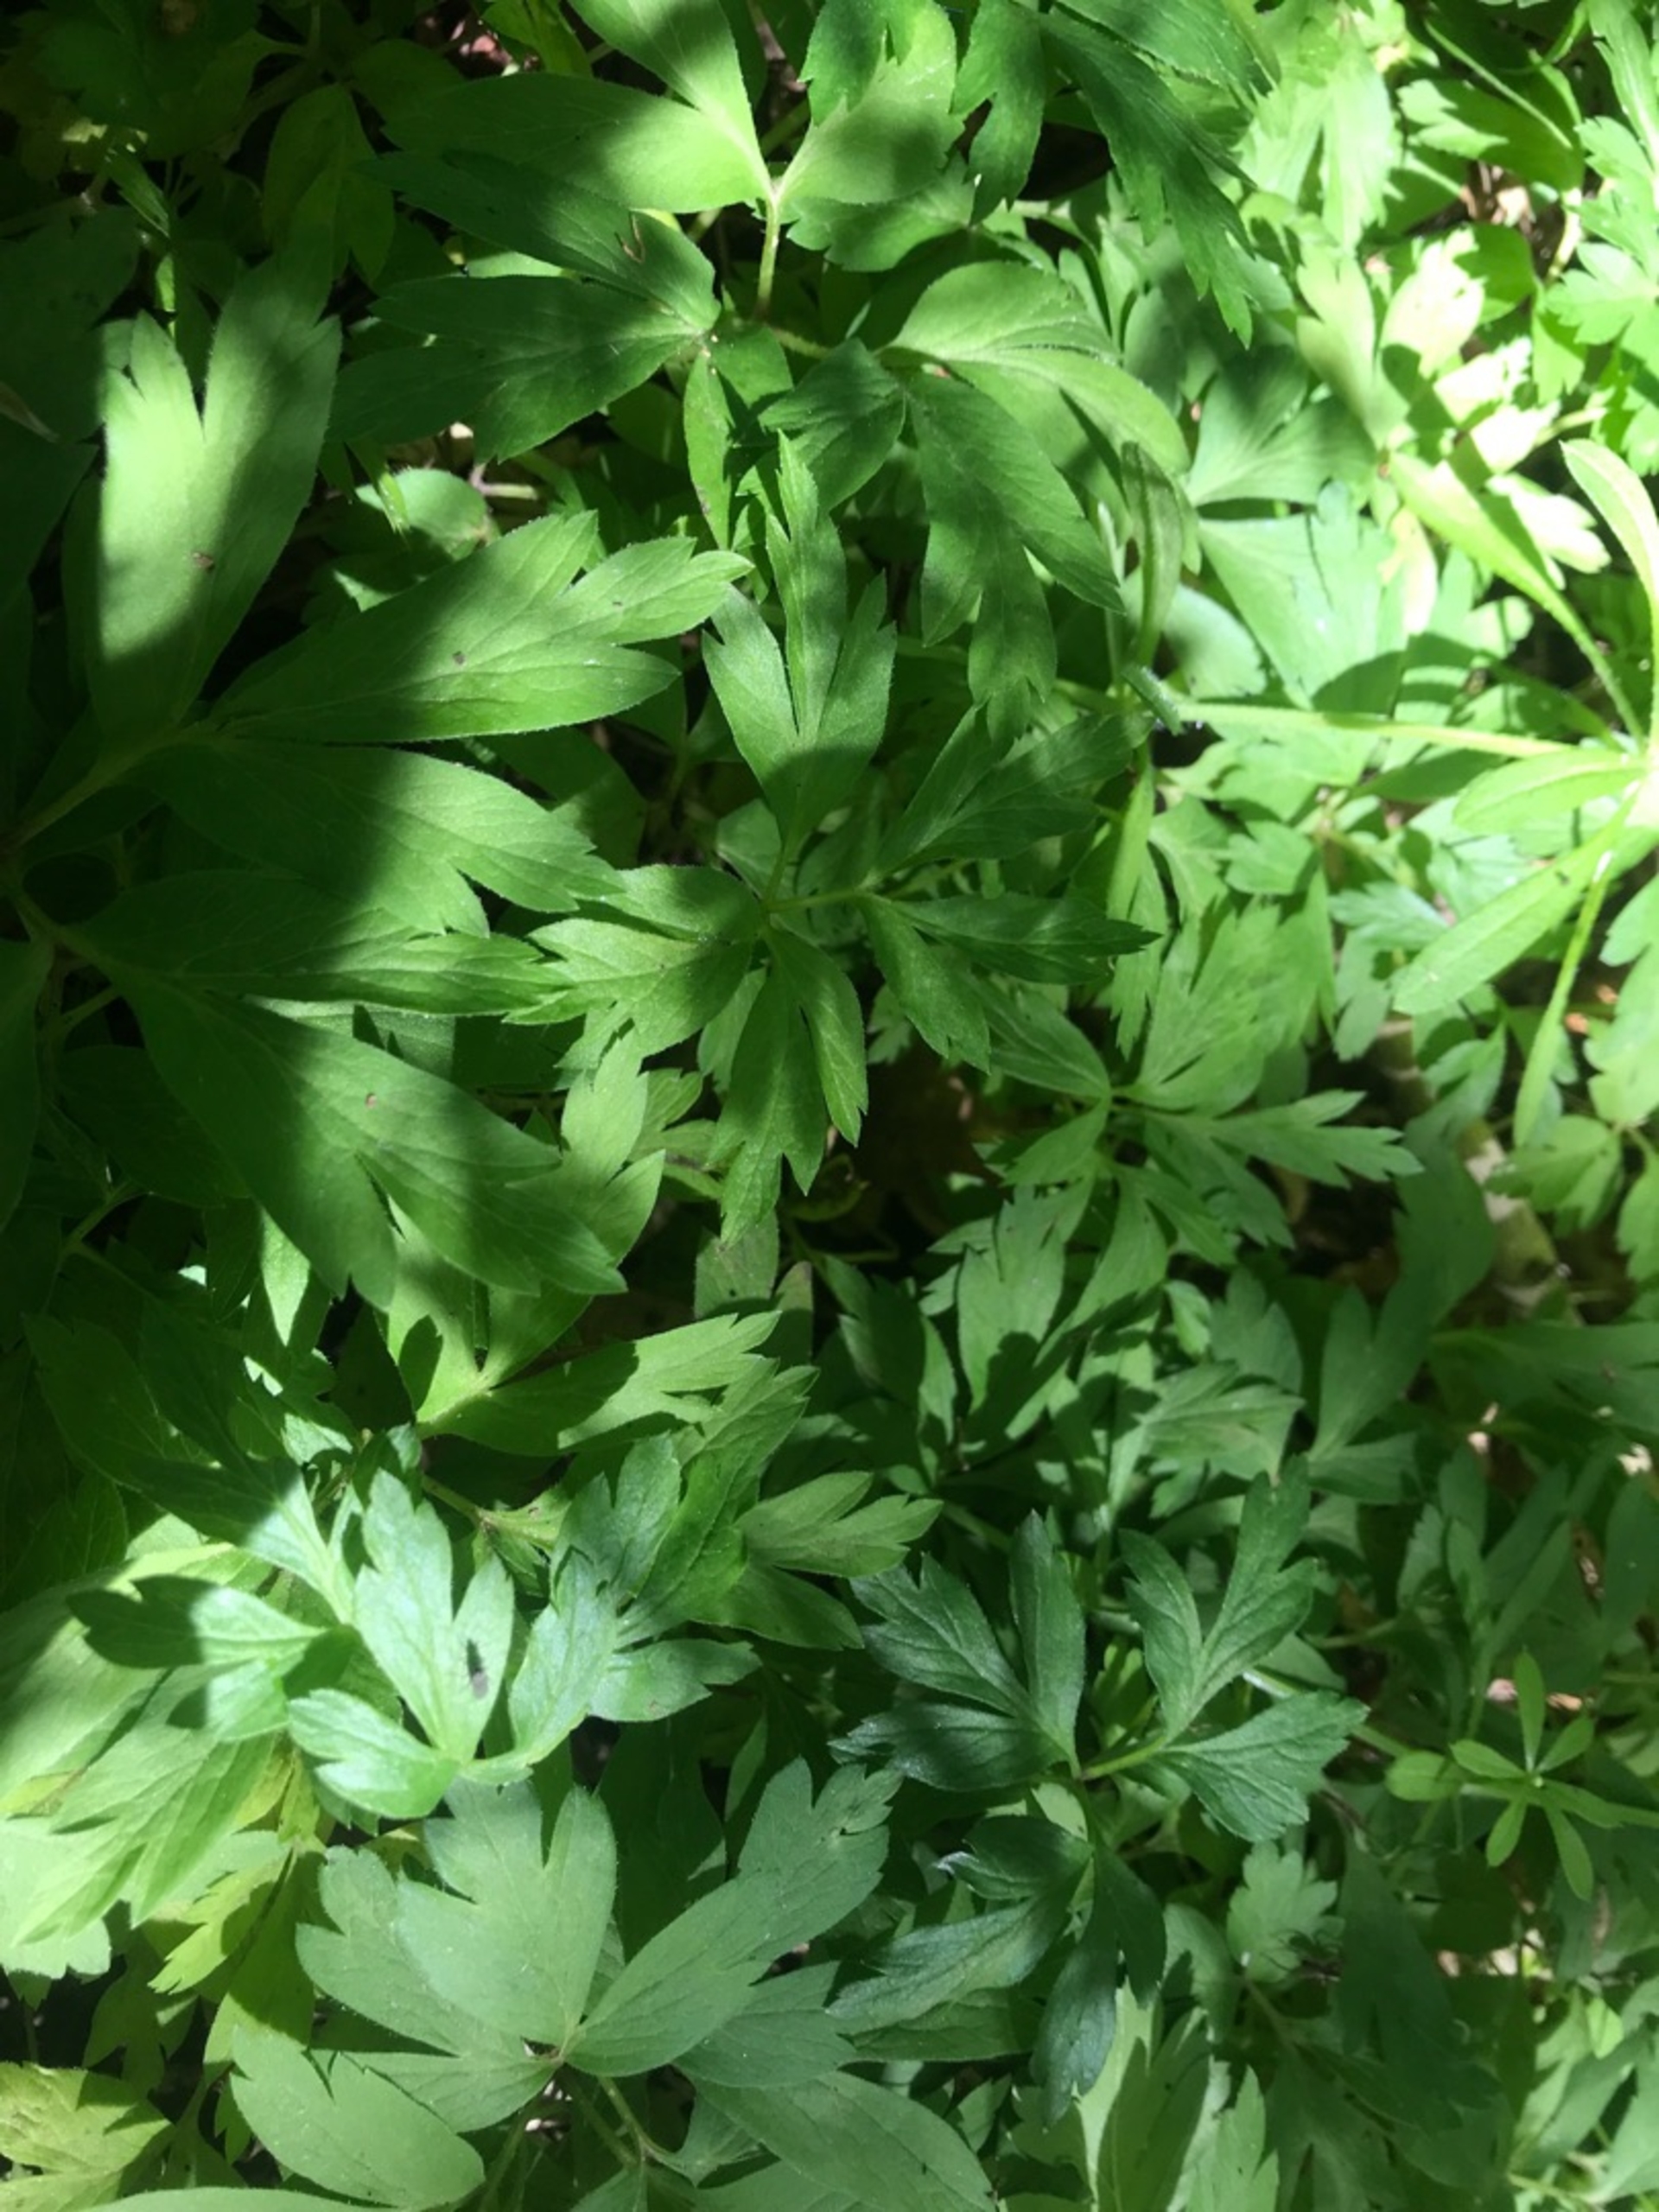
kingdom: Plantae
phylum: Tracheophyta
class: Magnoliopsida
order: Ranunculales
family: Ranunculaceae
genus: Anemone
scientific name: Anemone nemorosa
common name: Hvid anemone
